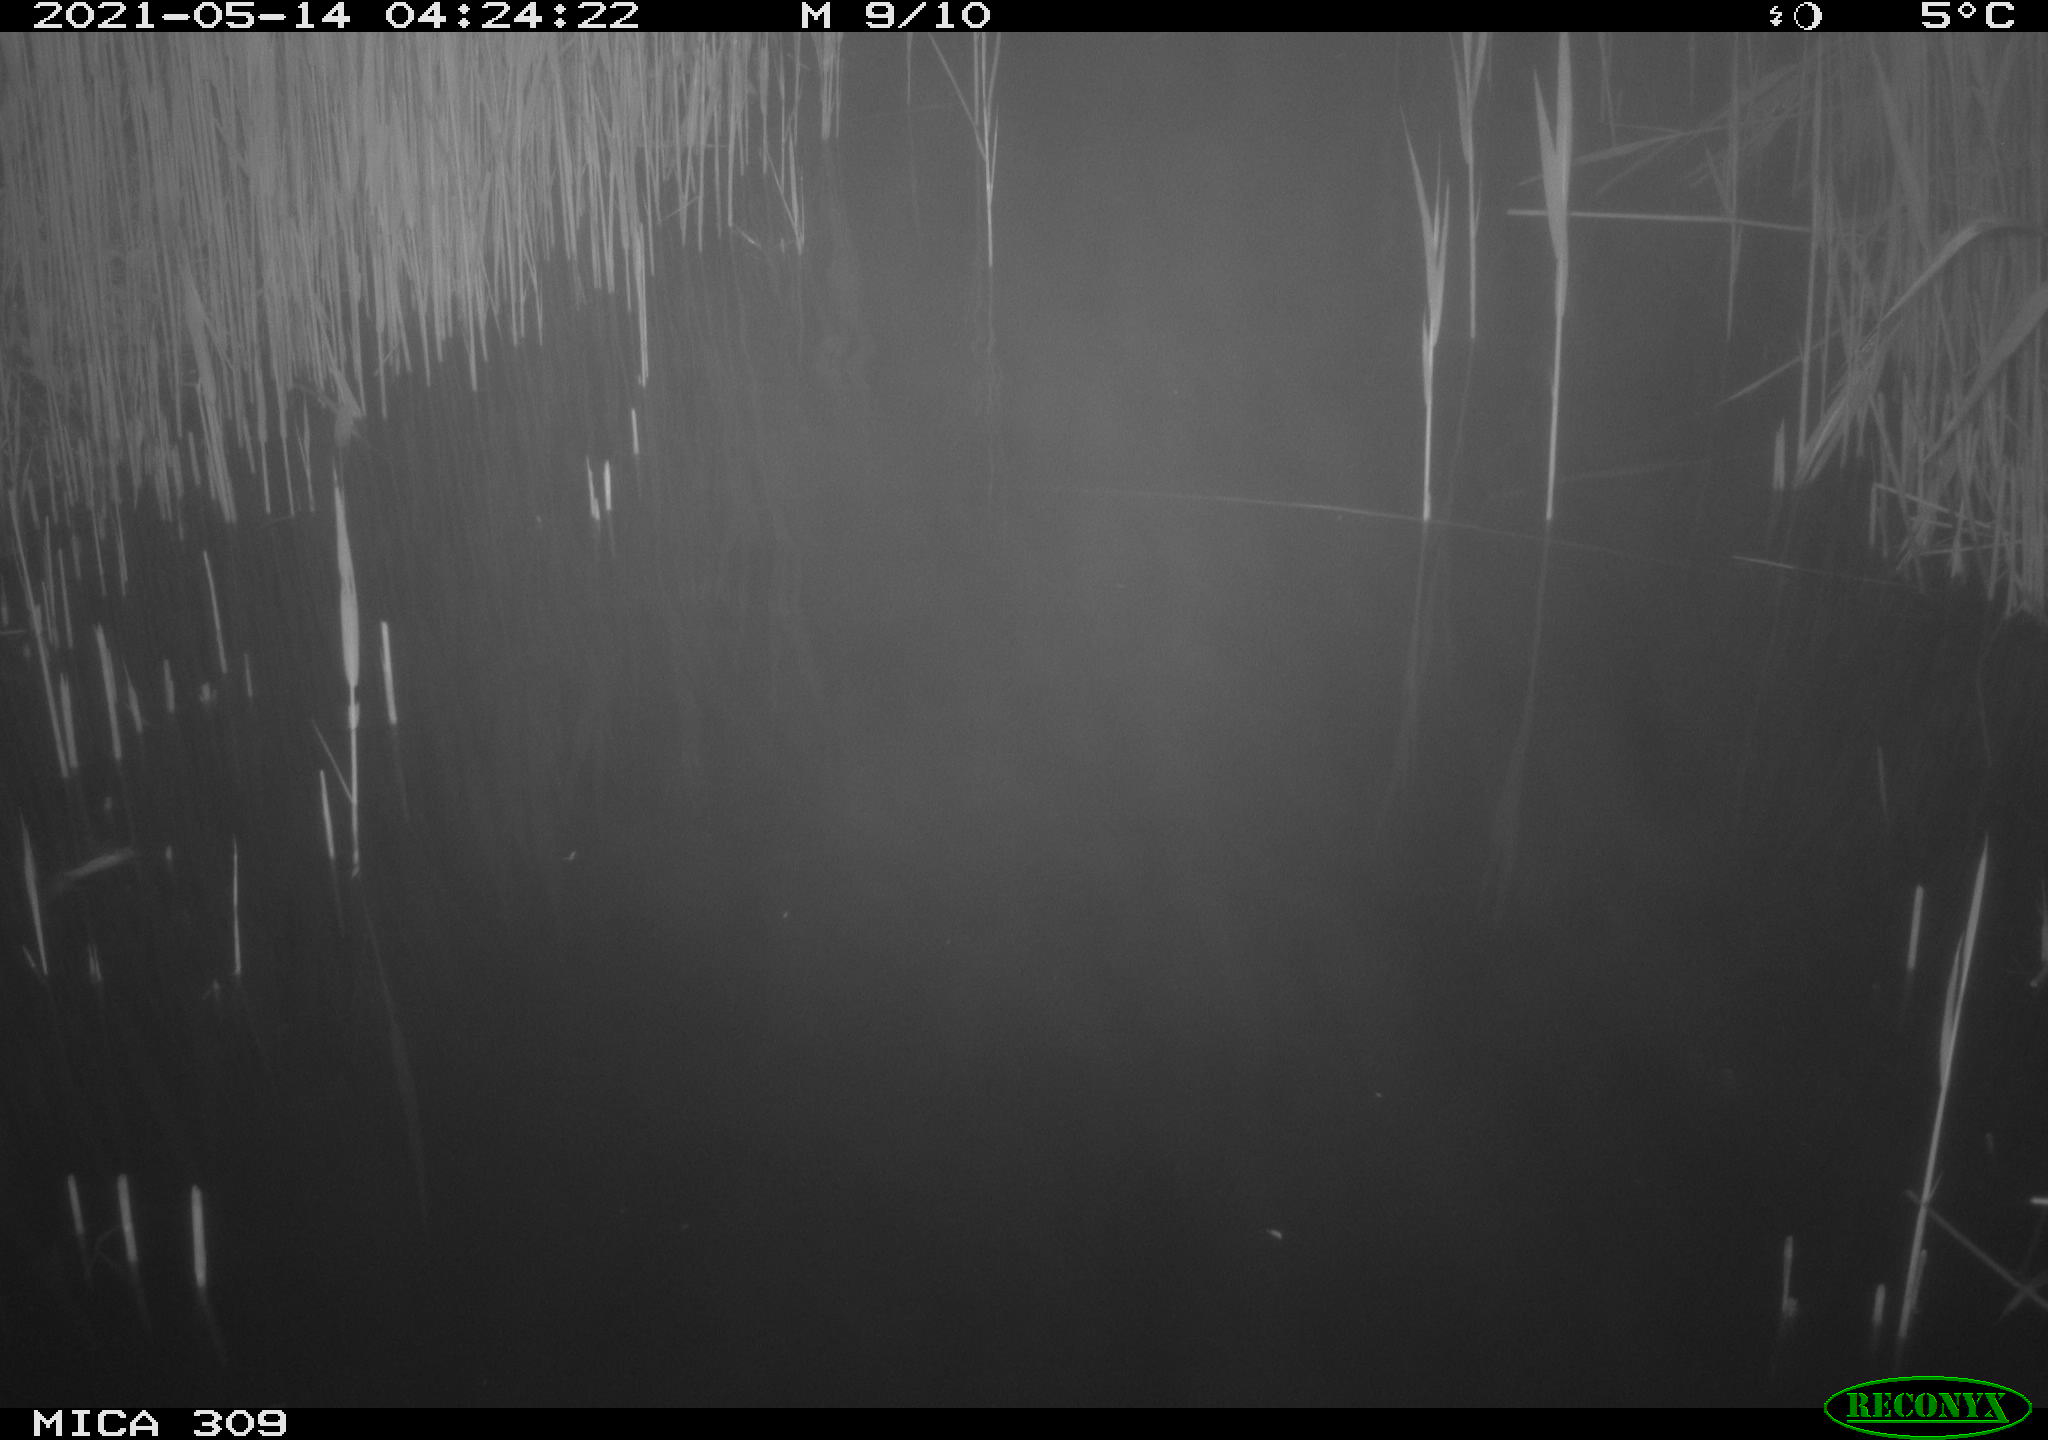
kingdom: Animalia
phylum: Chordata
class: Aves
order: Anseriformes
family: Anatidae
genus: Anas
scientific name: Anas platyrhynchos
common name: Mallard
